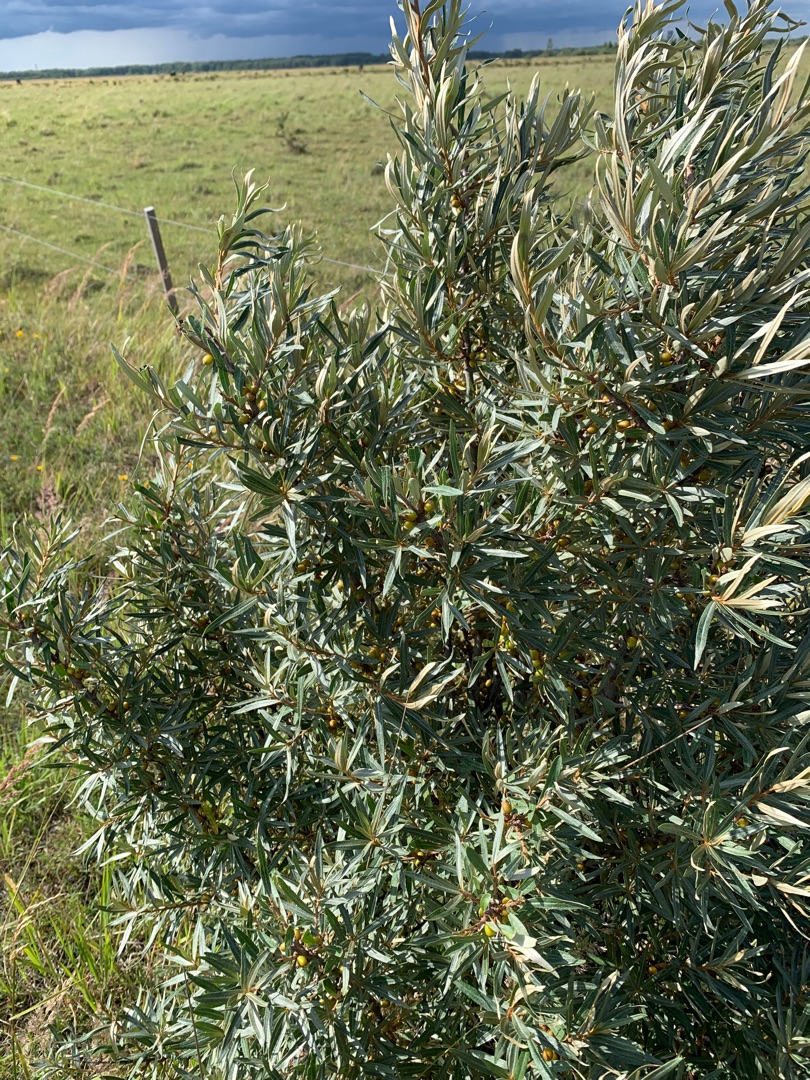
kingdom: Plantae
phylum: Tracheophyta
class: Magnoliopsida
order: Rosales
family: Elaeagnaceae
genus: Hippophae
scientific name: Hippophae rhamnoides
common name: Havtorn
